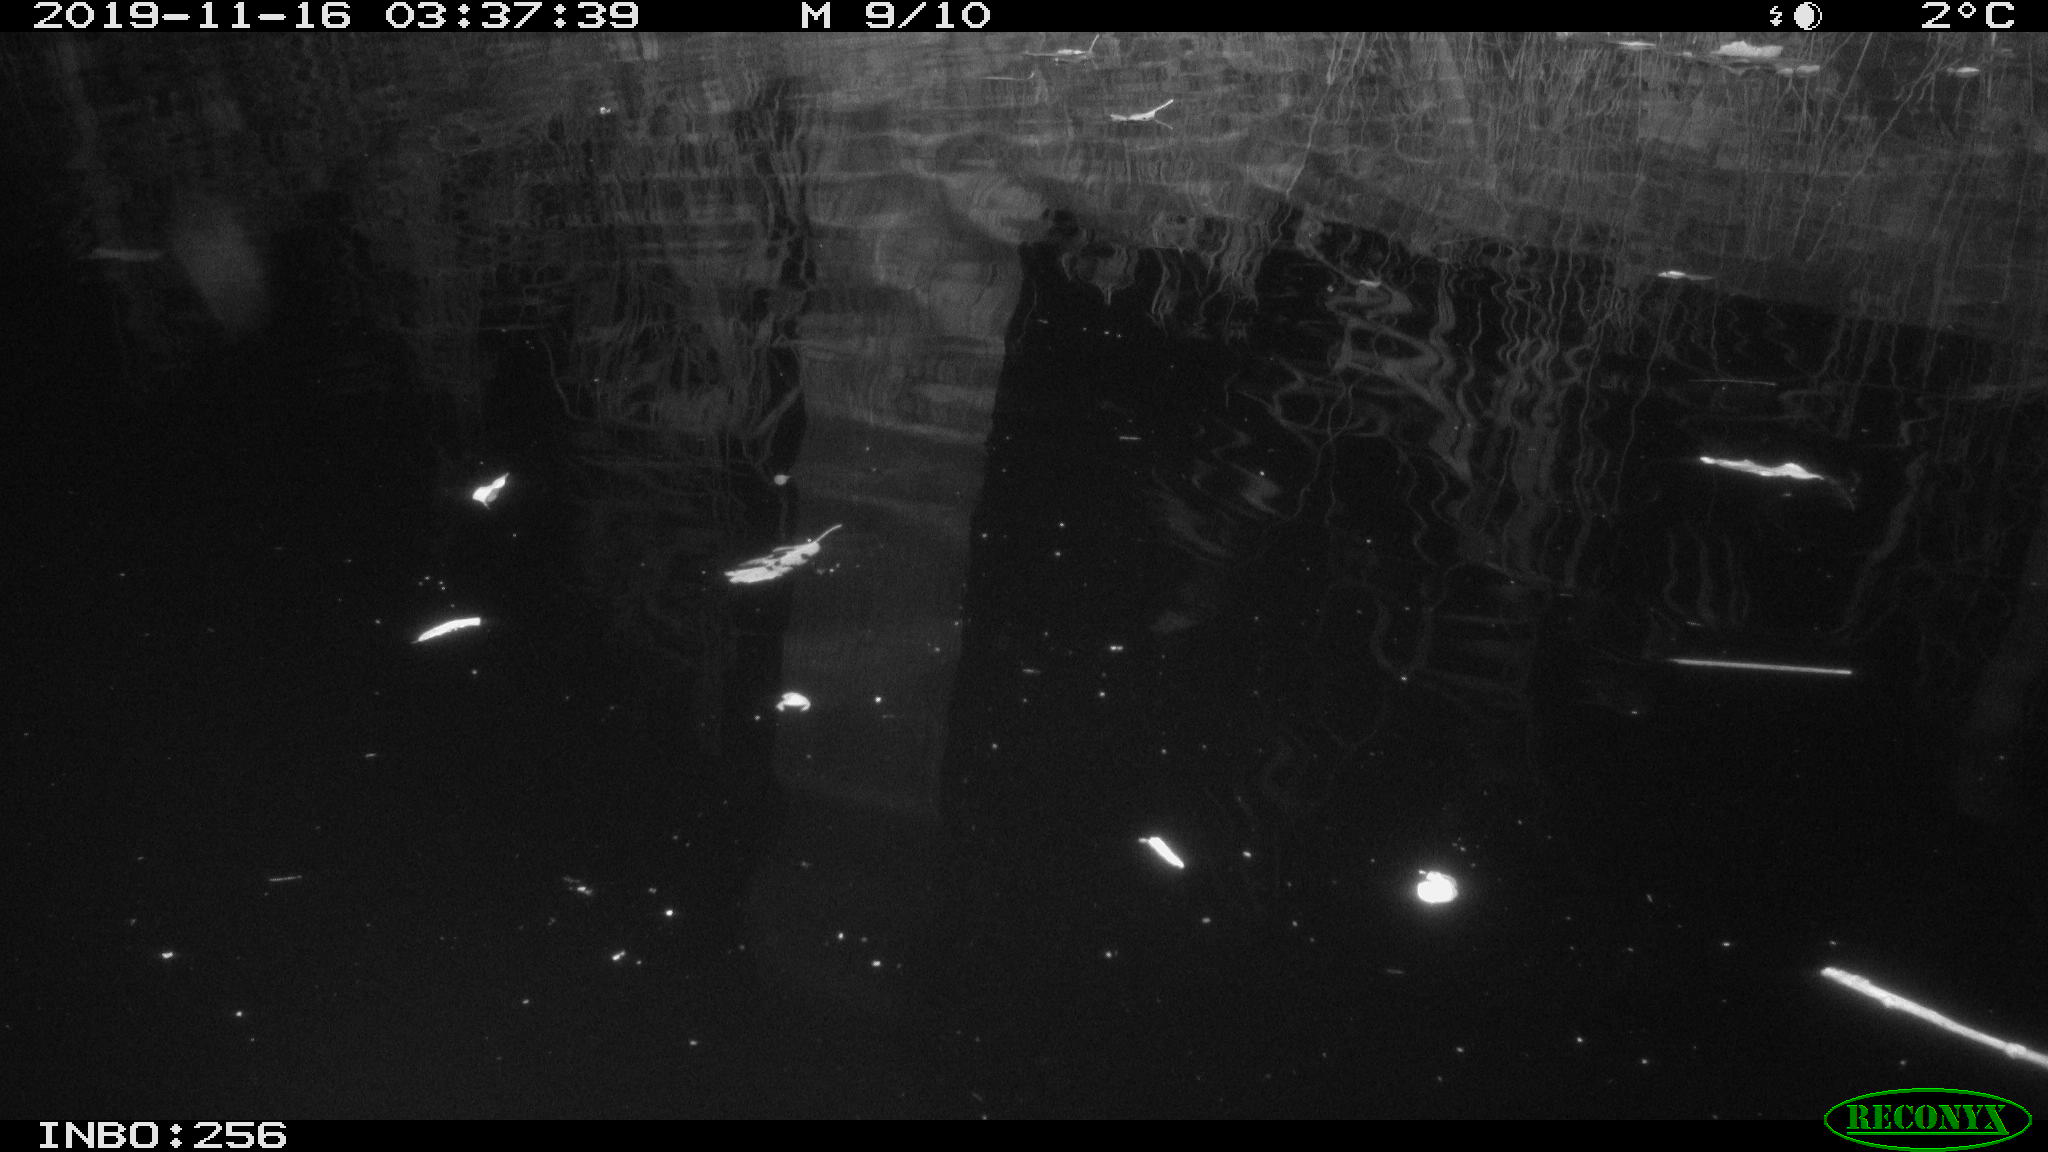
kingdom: Animalia
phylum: Chordata
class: Mammalia
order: Rodentia
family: Muridae
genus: Rattus
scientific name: Rattus norvegicus
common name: Brown rat
